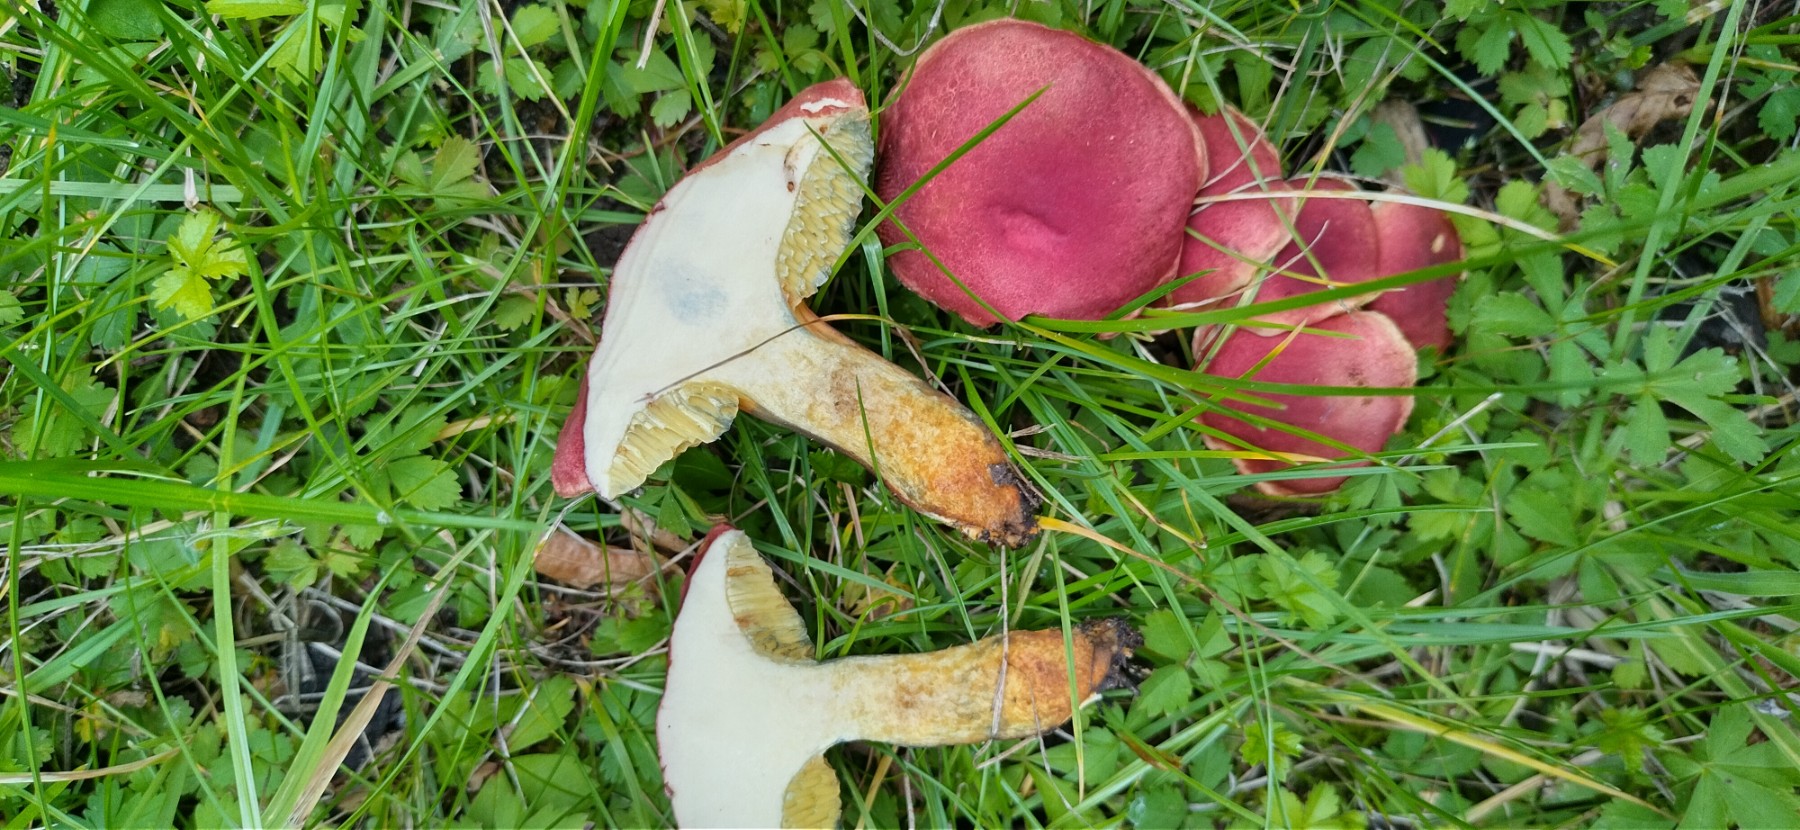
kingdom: Fungi
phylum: Basidiomycota
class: Agaricomycetes
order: Boletales
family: Boletaceae
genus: Hortiboletus
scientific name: Hortiboletus rubellus
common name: blodrød rørhat
